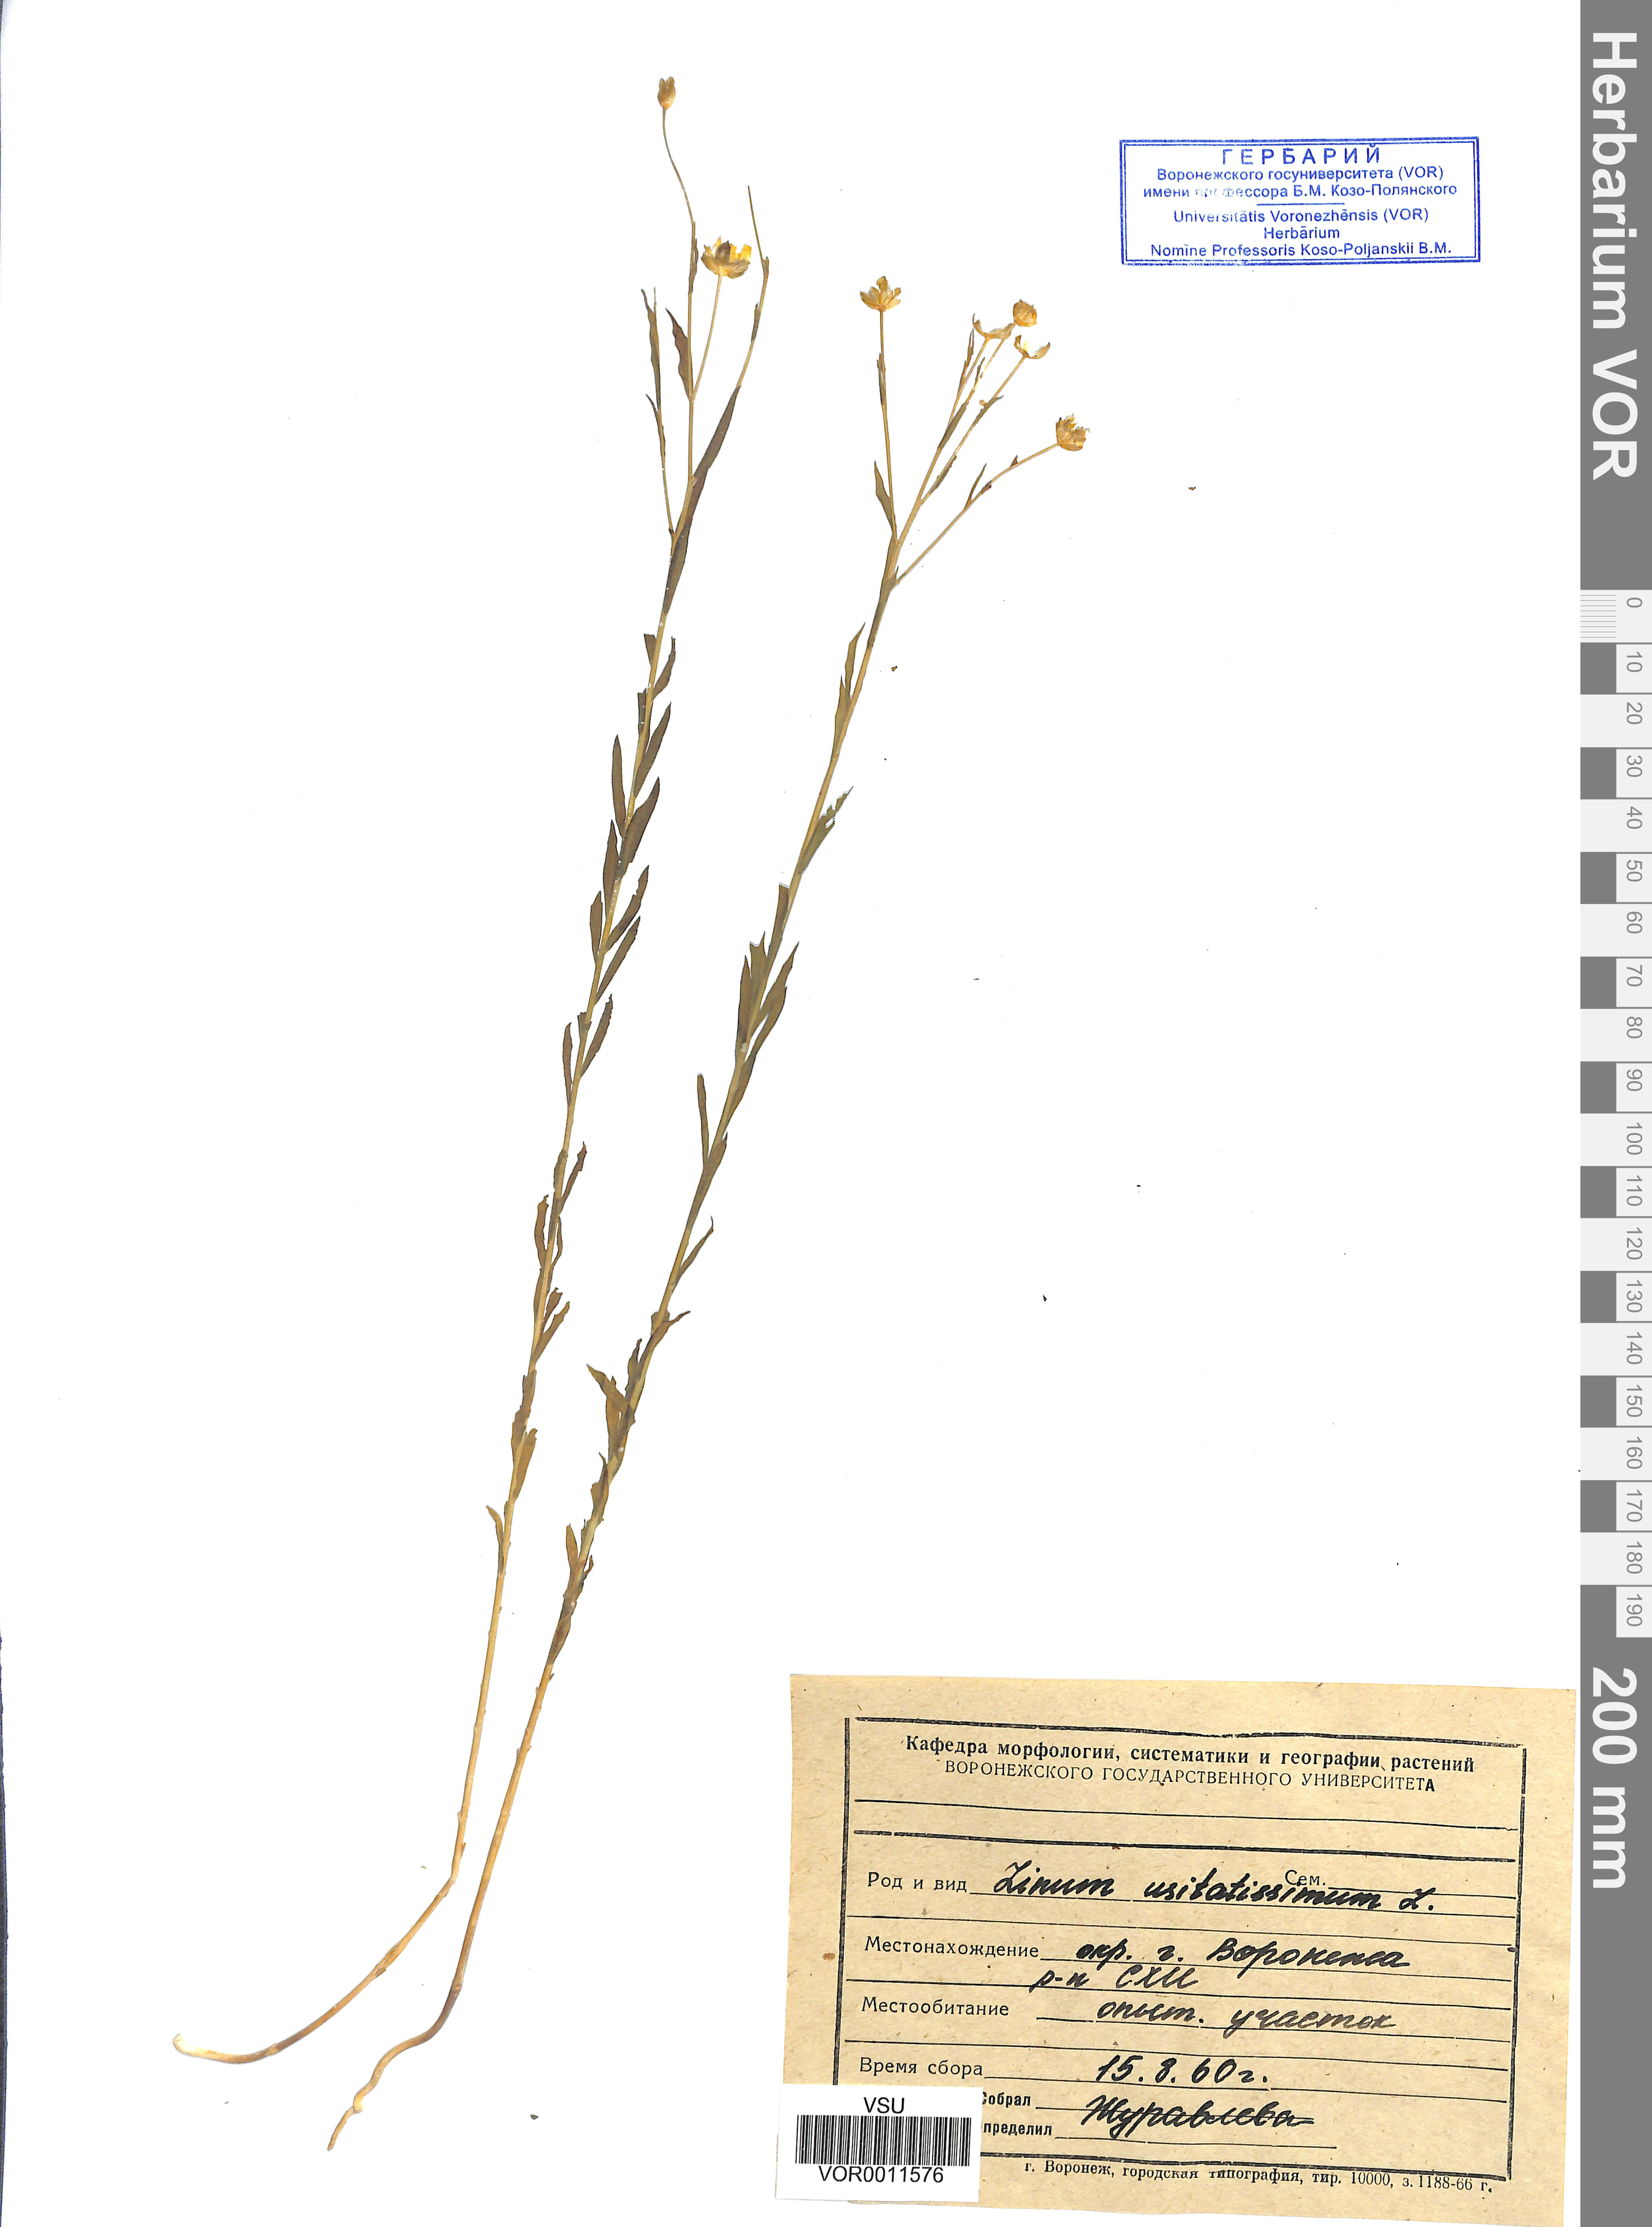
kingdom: Plantae
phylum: Tracheophyta
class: Magnoliopsida
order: Malpighiales
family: Linaceae
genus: Linum
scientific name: Linum usitatissimum
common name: Flax
